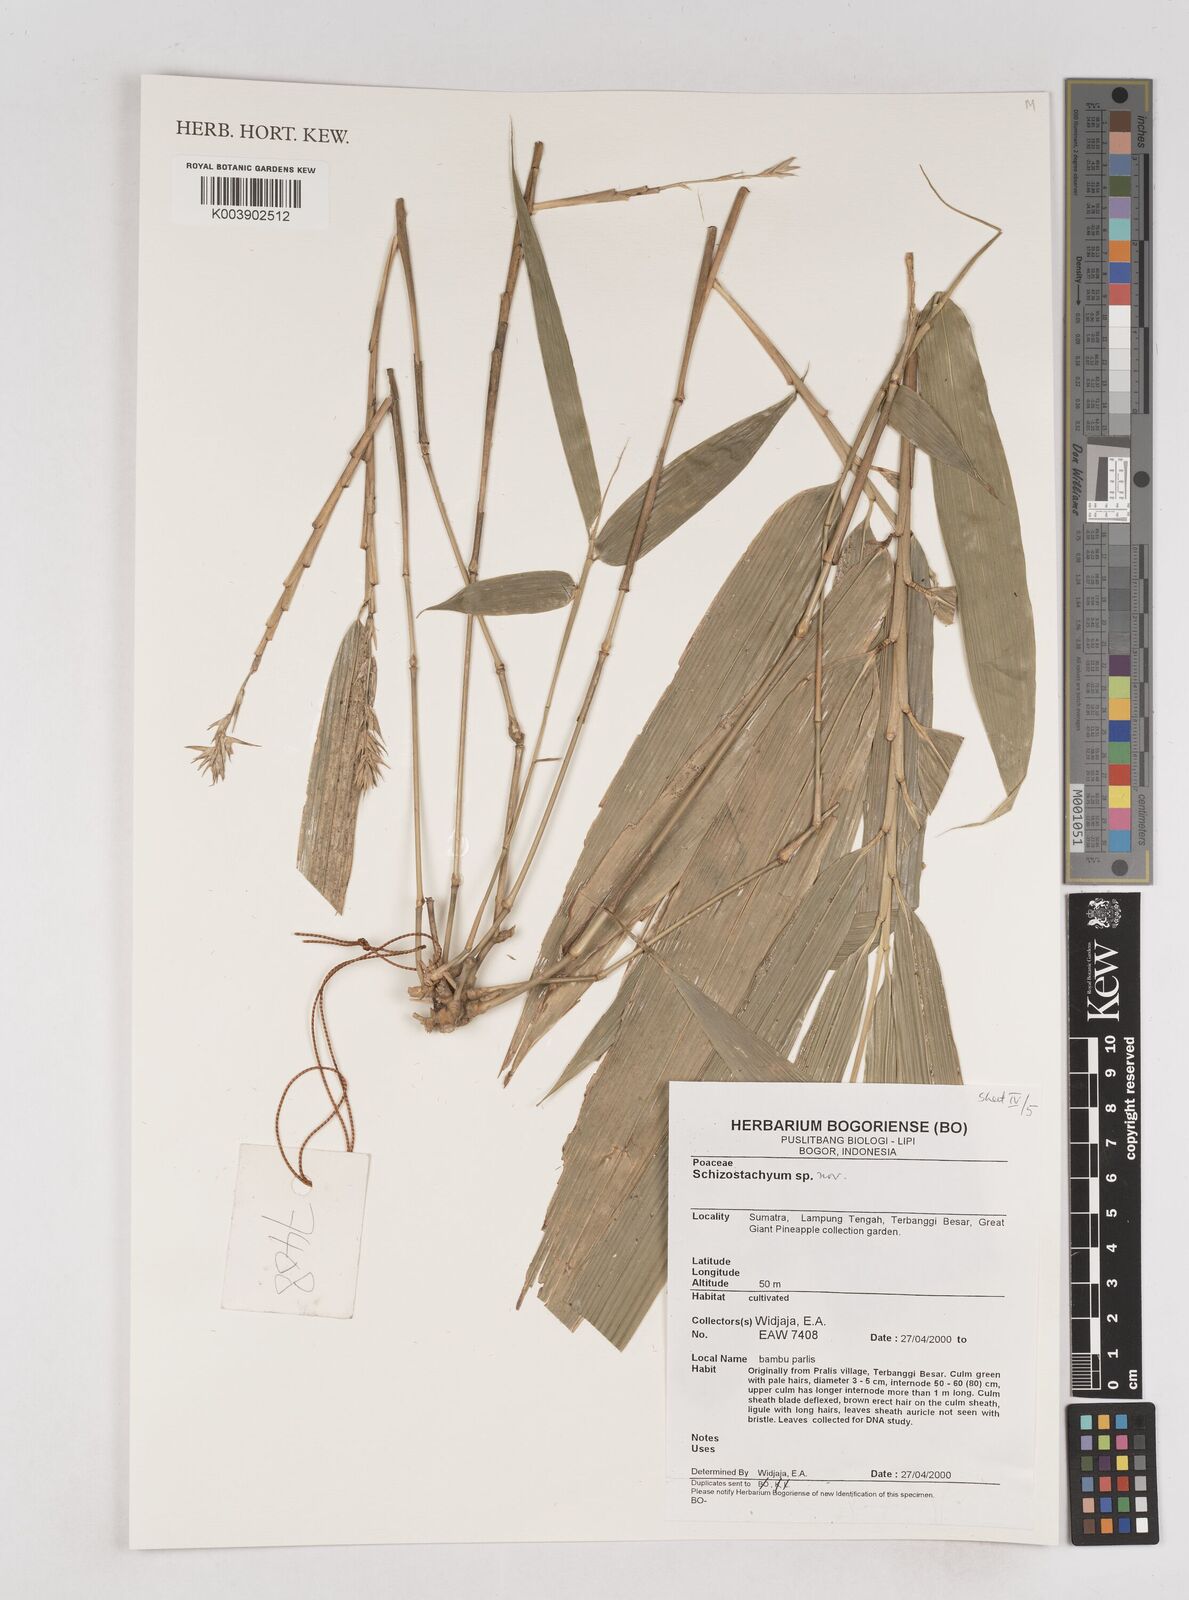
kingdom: Plantae
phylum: Tracheophyta
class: Liliopsida
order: Poales
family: Poaceae
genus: Schizostachyum
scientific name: Schizostachyum
